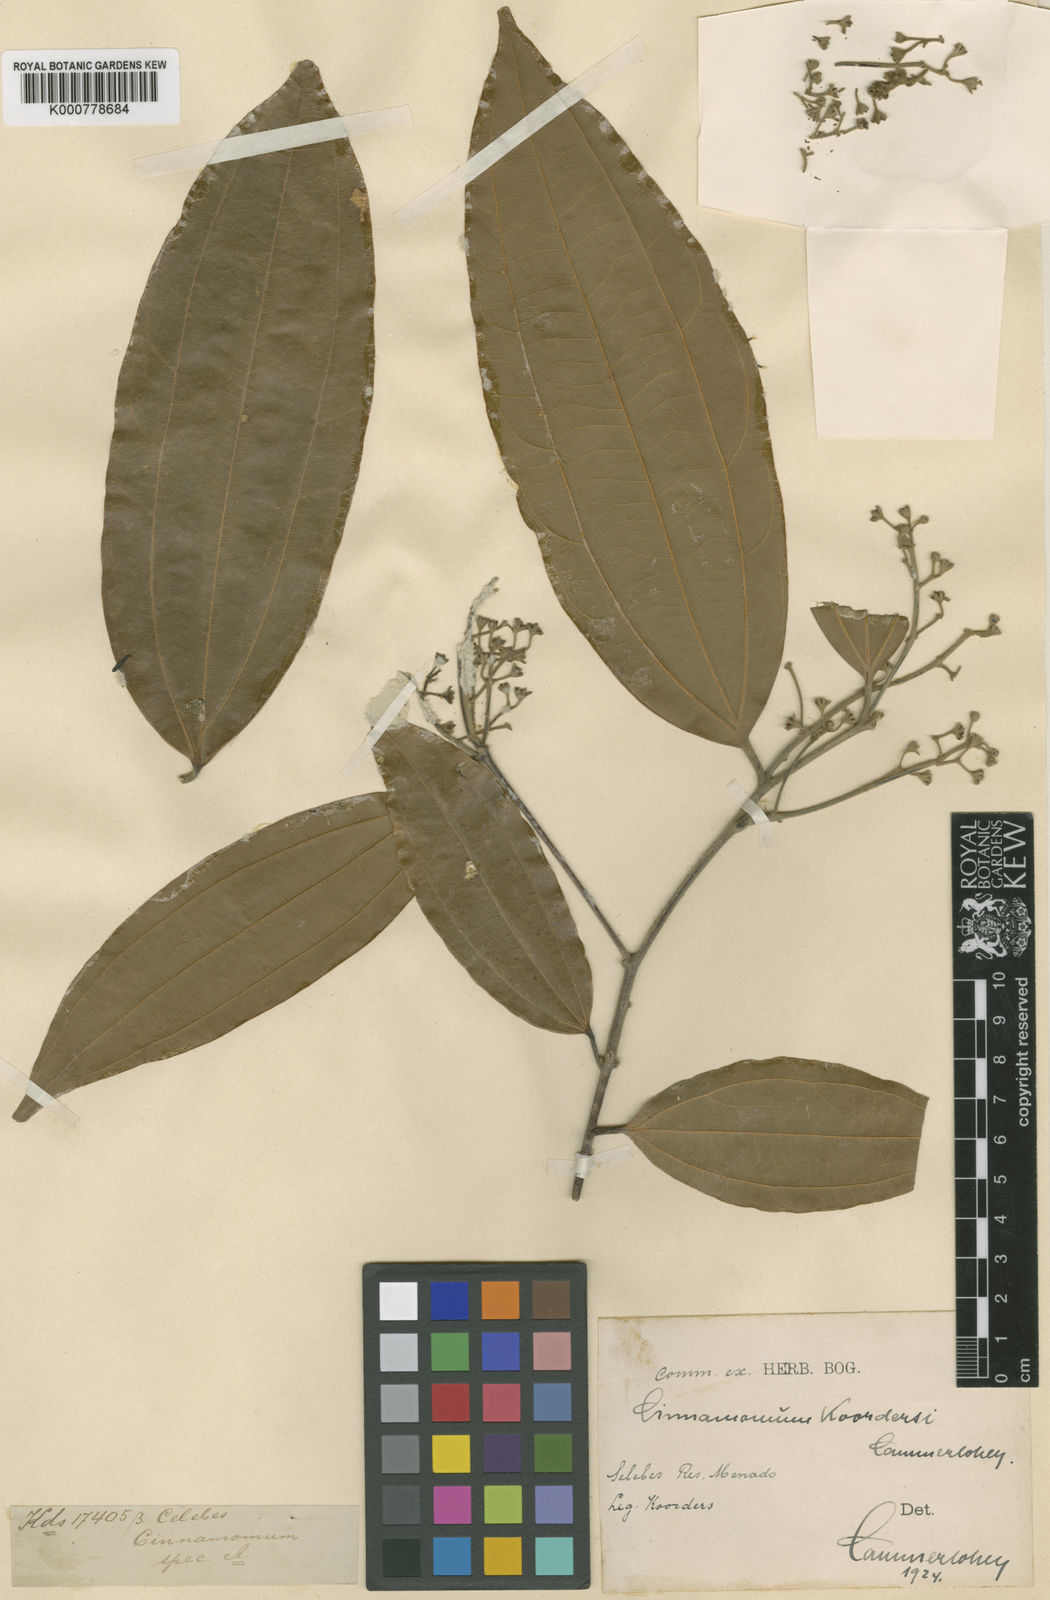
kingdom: Plantae
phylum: Tracheophyta
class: Magnoliopsida
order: Laurales
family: Lauraceae
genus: Cinnamomum
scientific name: Cinnamomum trichophyllum
